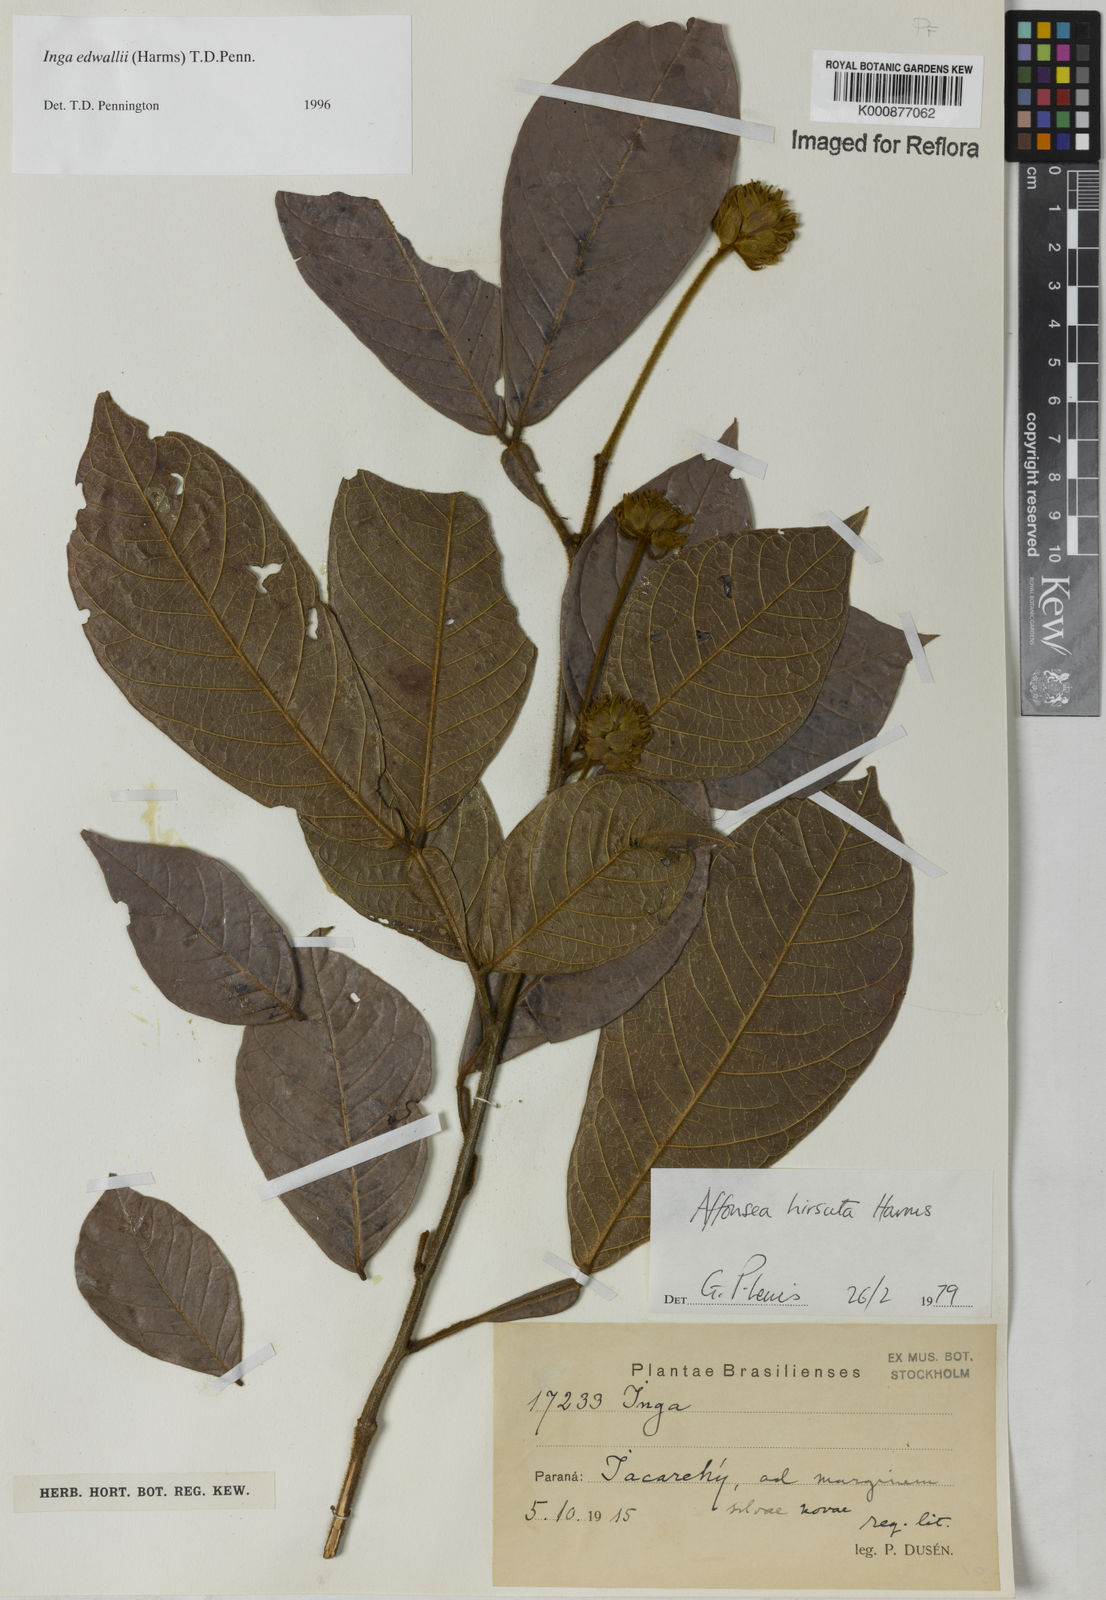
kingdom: Plantae
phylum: Tracheophyta
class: Magnoliopsida
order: Fabales
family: Fabaceae
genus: Inga
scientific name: Inga edwallii
